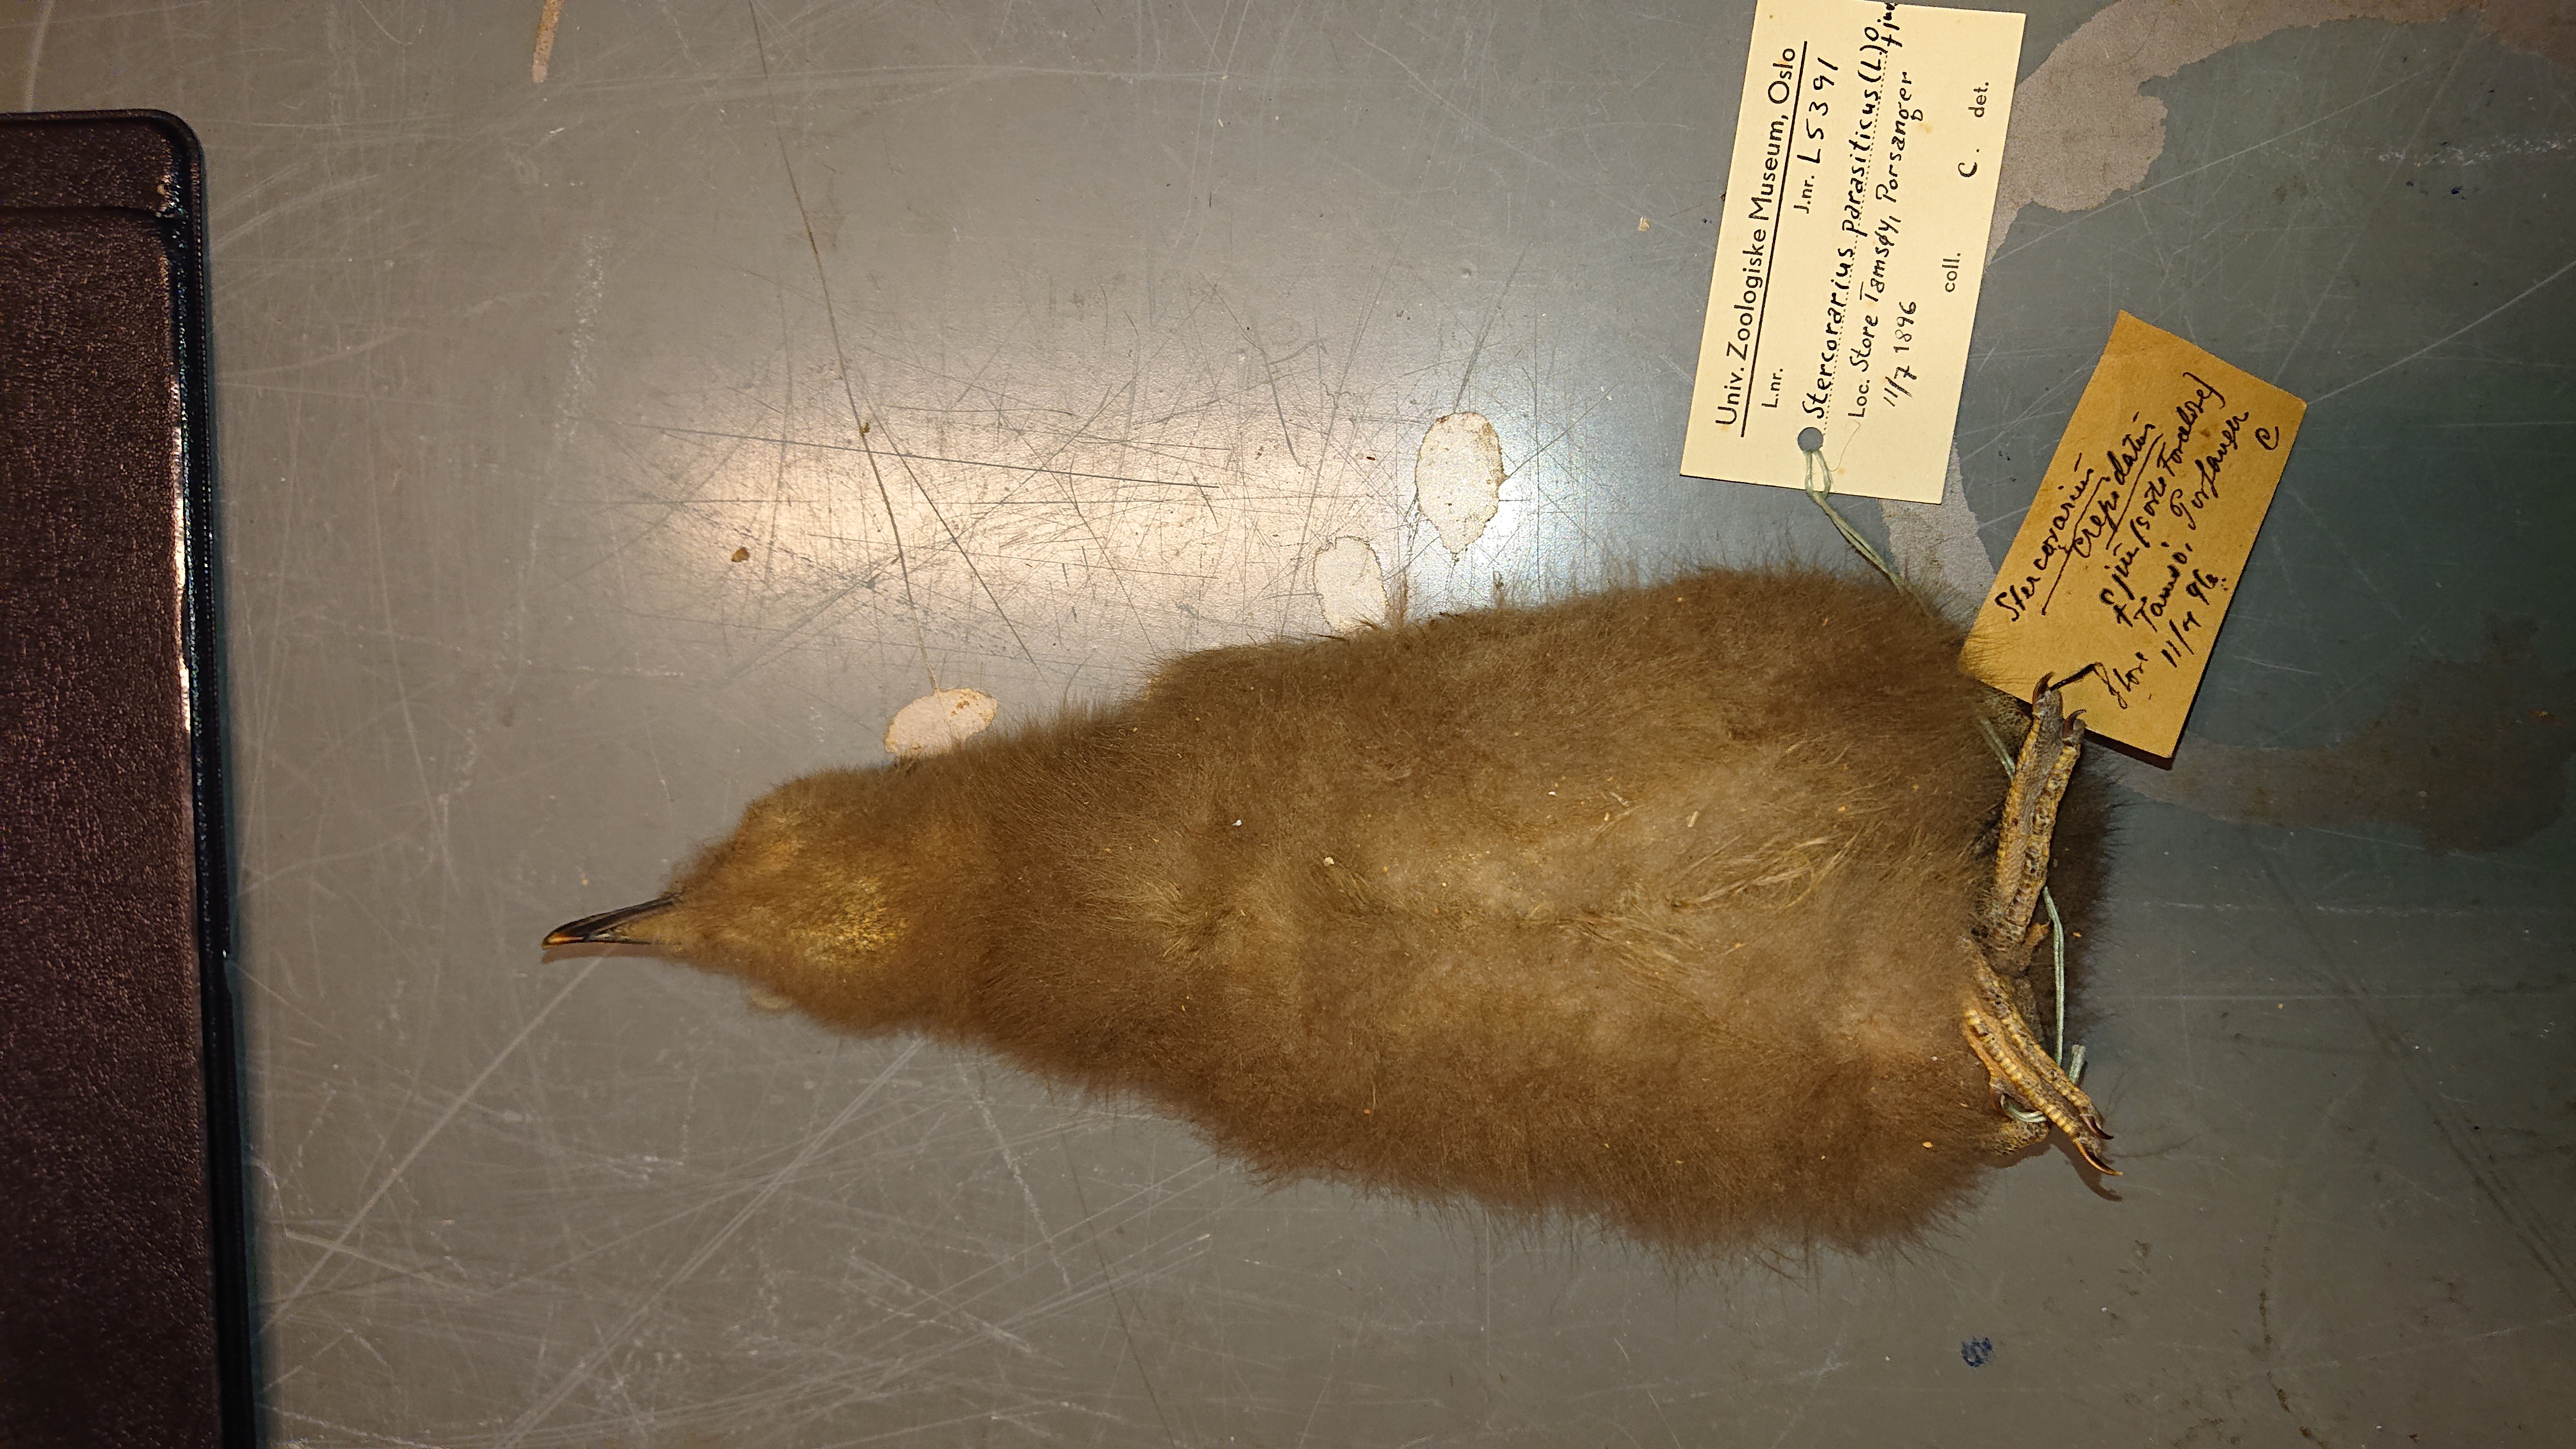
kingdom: Animalia
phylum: Chordata
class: Aves
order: Charadriiformes
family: Stercorariidae
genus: Stercorarius
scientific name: Stercorarius parasiticus
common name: Parasitic jaeger
